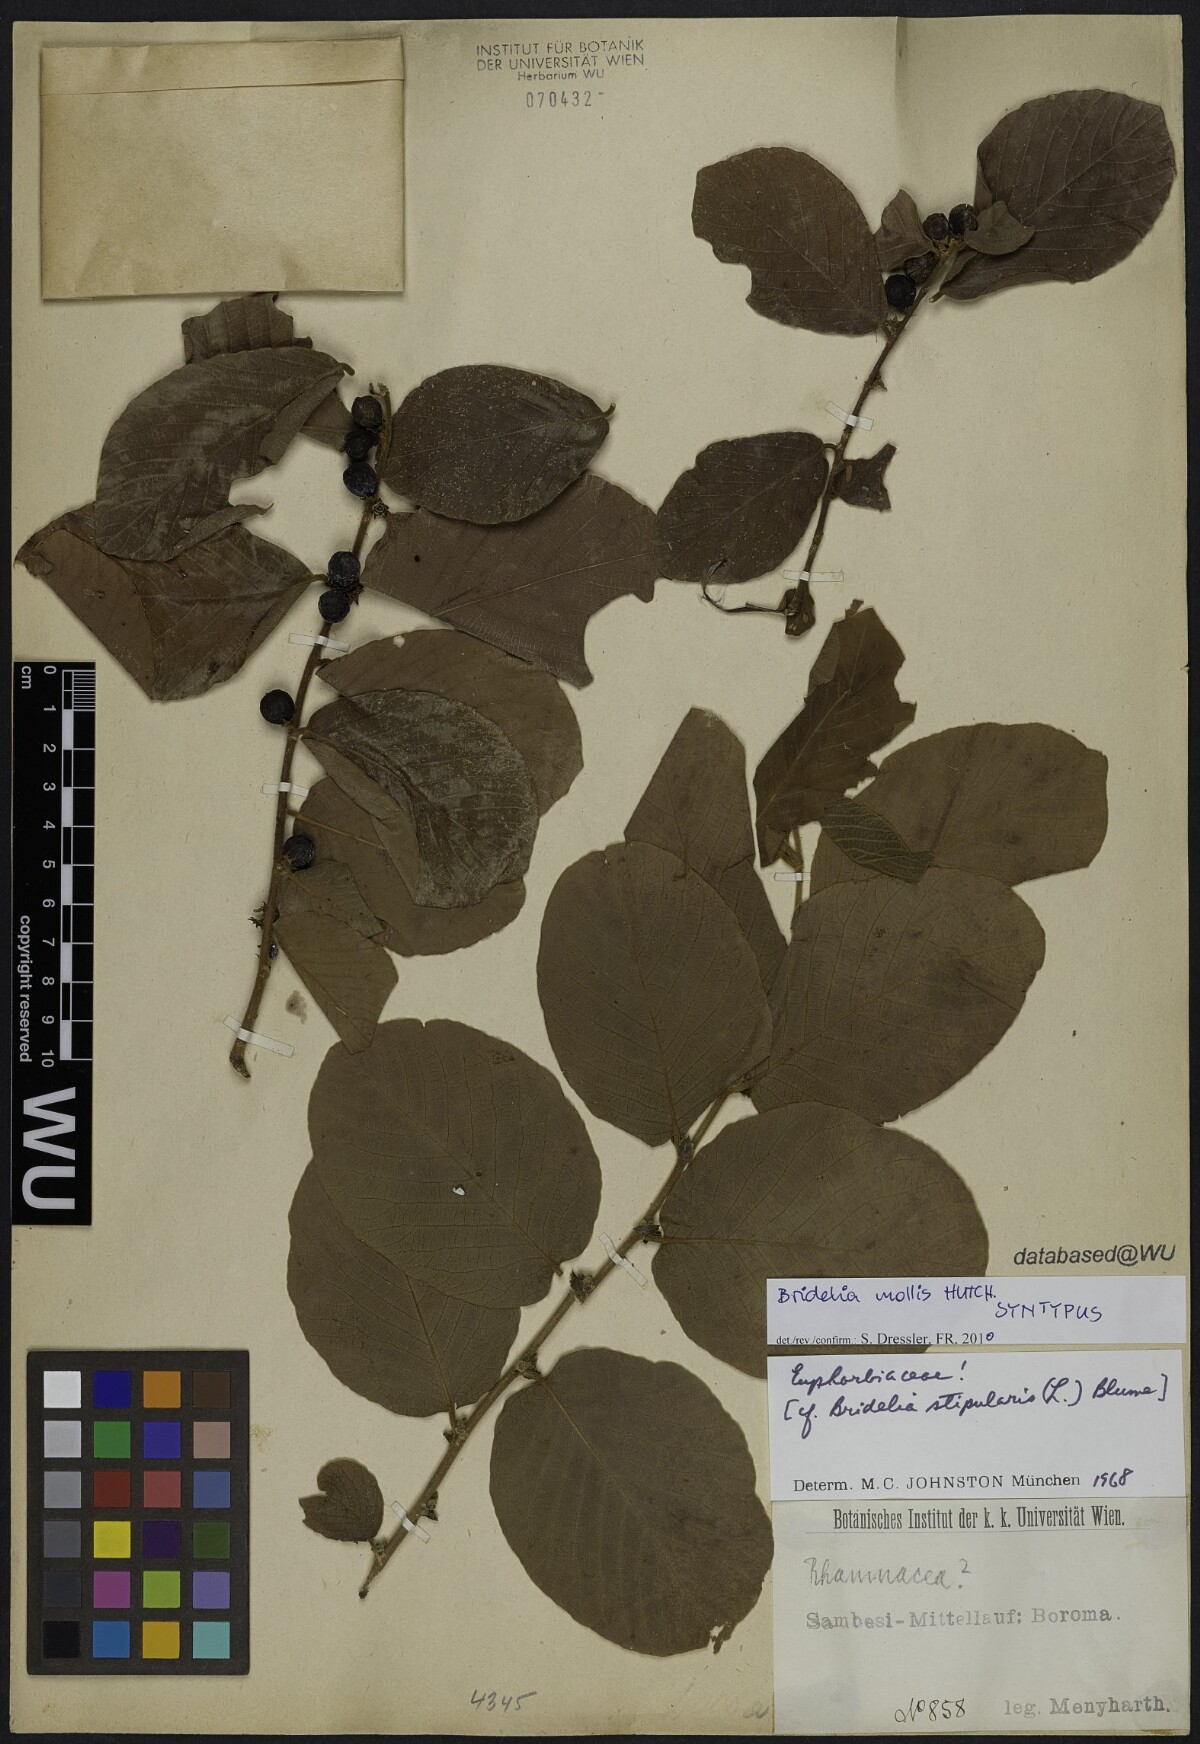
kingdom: Plantae
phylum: Tracheophyta
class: Magnoliopsida
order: Malpighiales
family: Phyllanthaceae
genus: Bridelia
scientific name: Bridelia mollis
